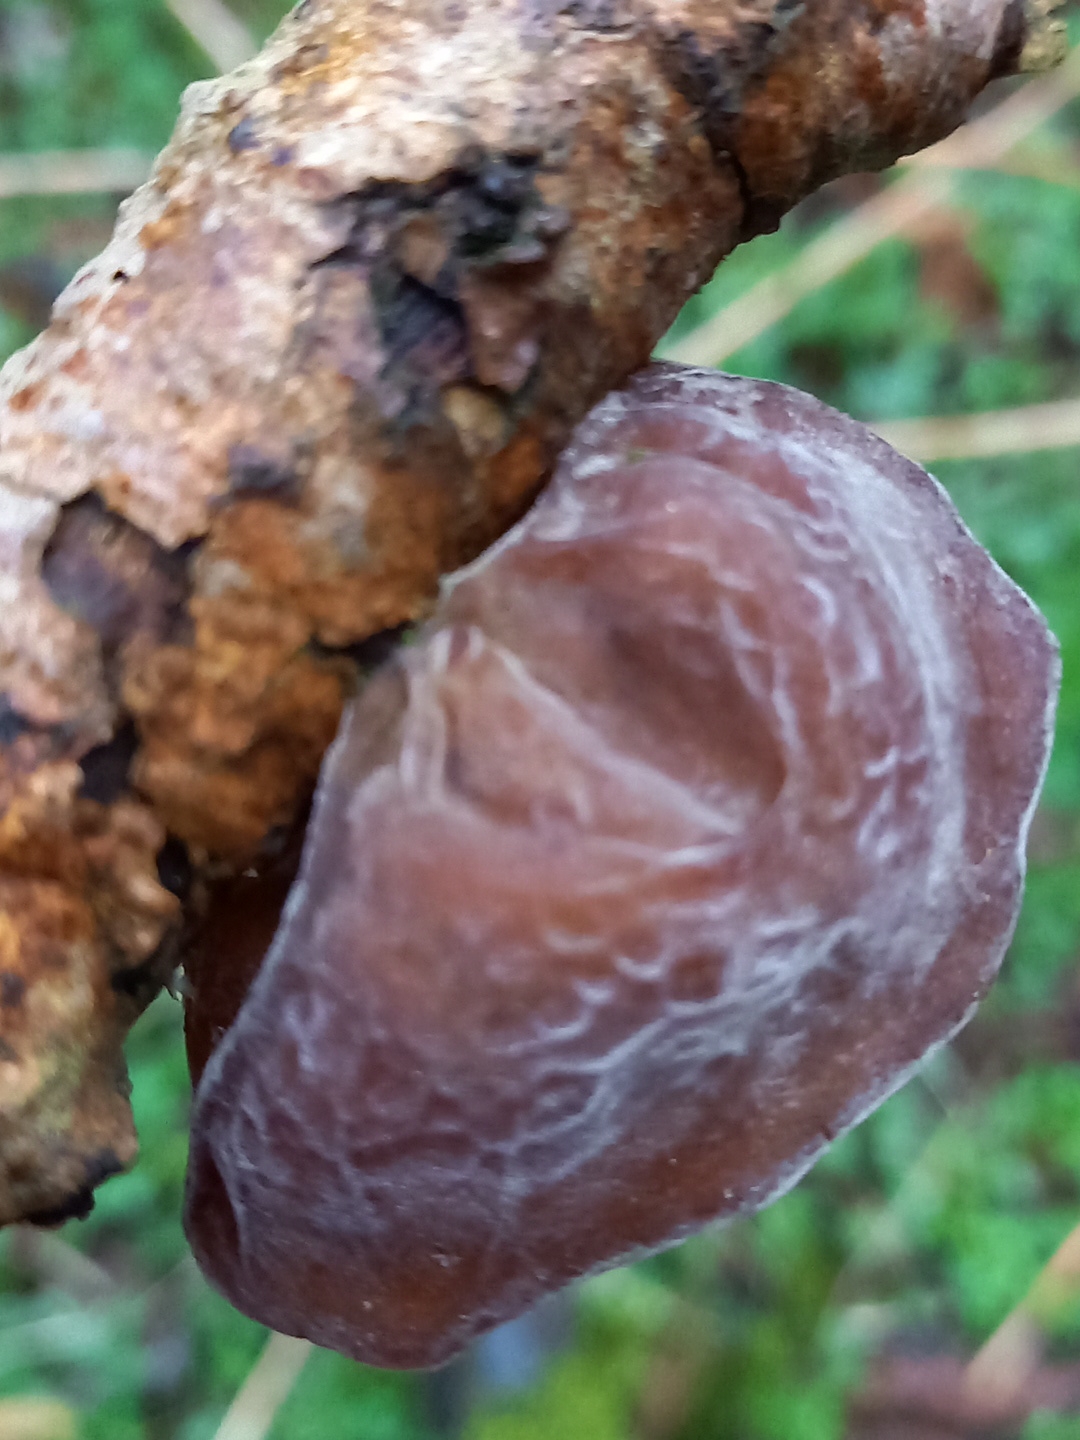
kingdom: Fungi
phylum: Basidiomycota
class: Agaricomycetes
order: Auriculariales
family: Auriculariaceae
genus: Auricularia
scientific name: Auricularia auricula-judae
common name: almindelig judasøre
